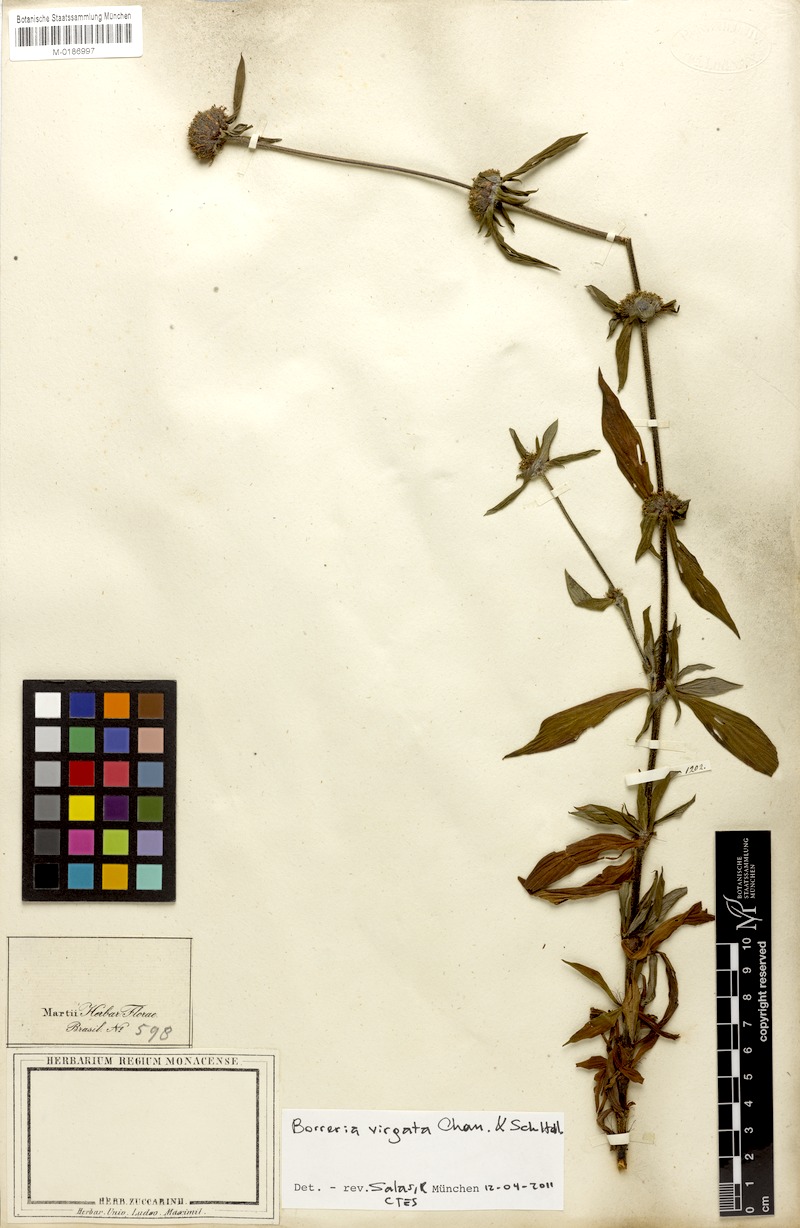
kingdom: Plantae
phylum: Tracheophyta
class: Magnoliopsida
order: Gentianales
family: Rubiaceae
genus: Spermacoce
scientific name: Spermacoce ocymifolia
